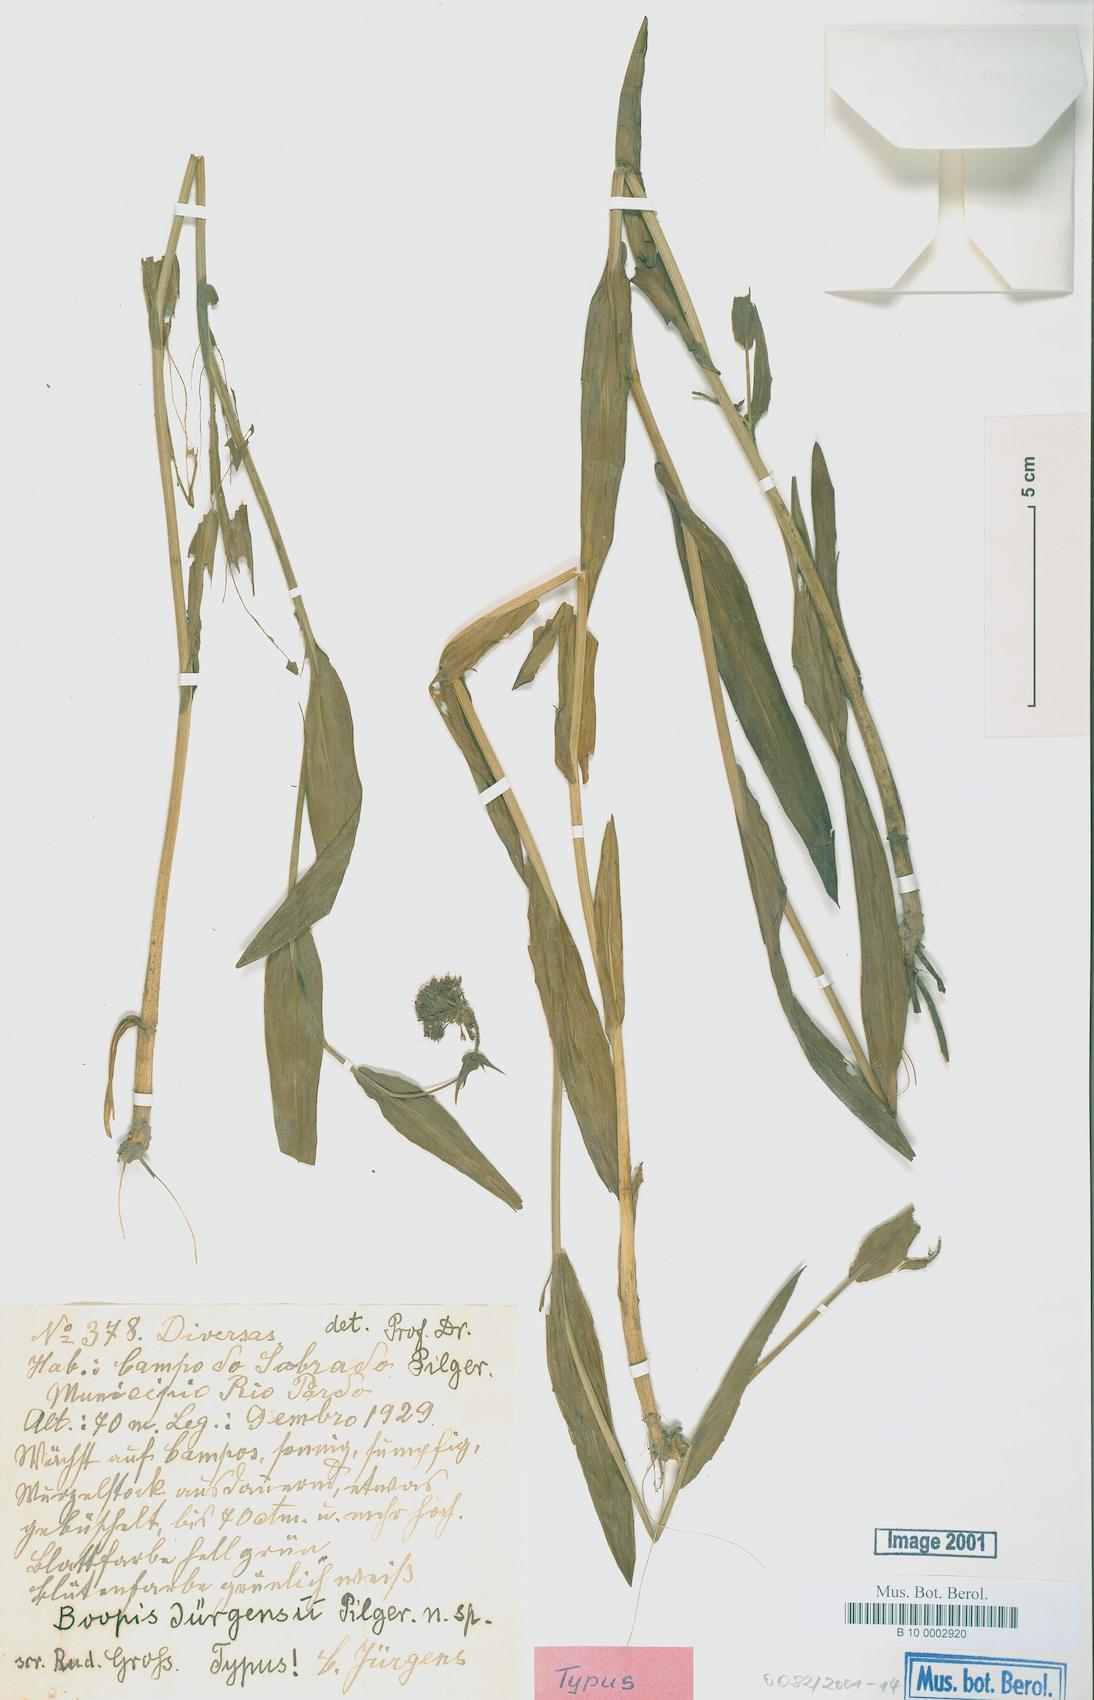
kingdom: Plantae
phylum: Tracheophyta
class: Magnoliopsida
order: Asterales
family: Calyceraceae
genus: Acicarpha
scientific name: Acicarpha juergensii
